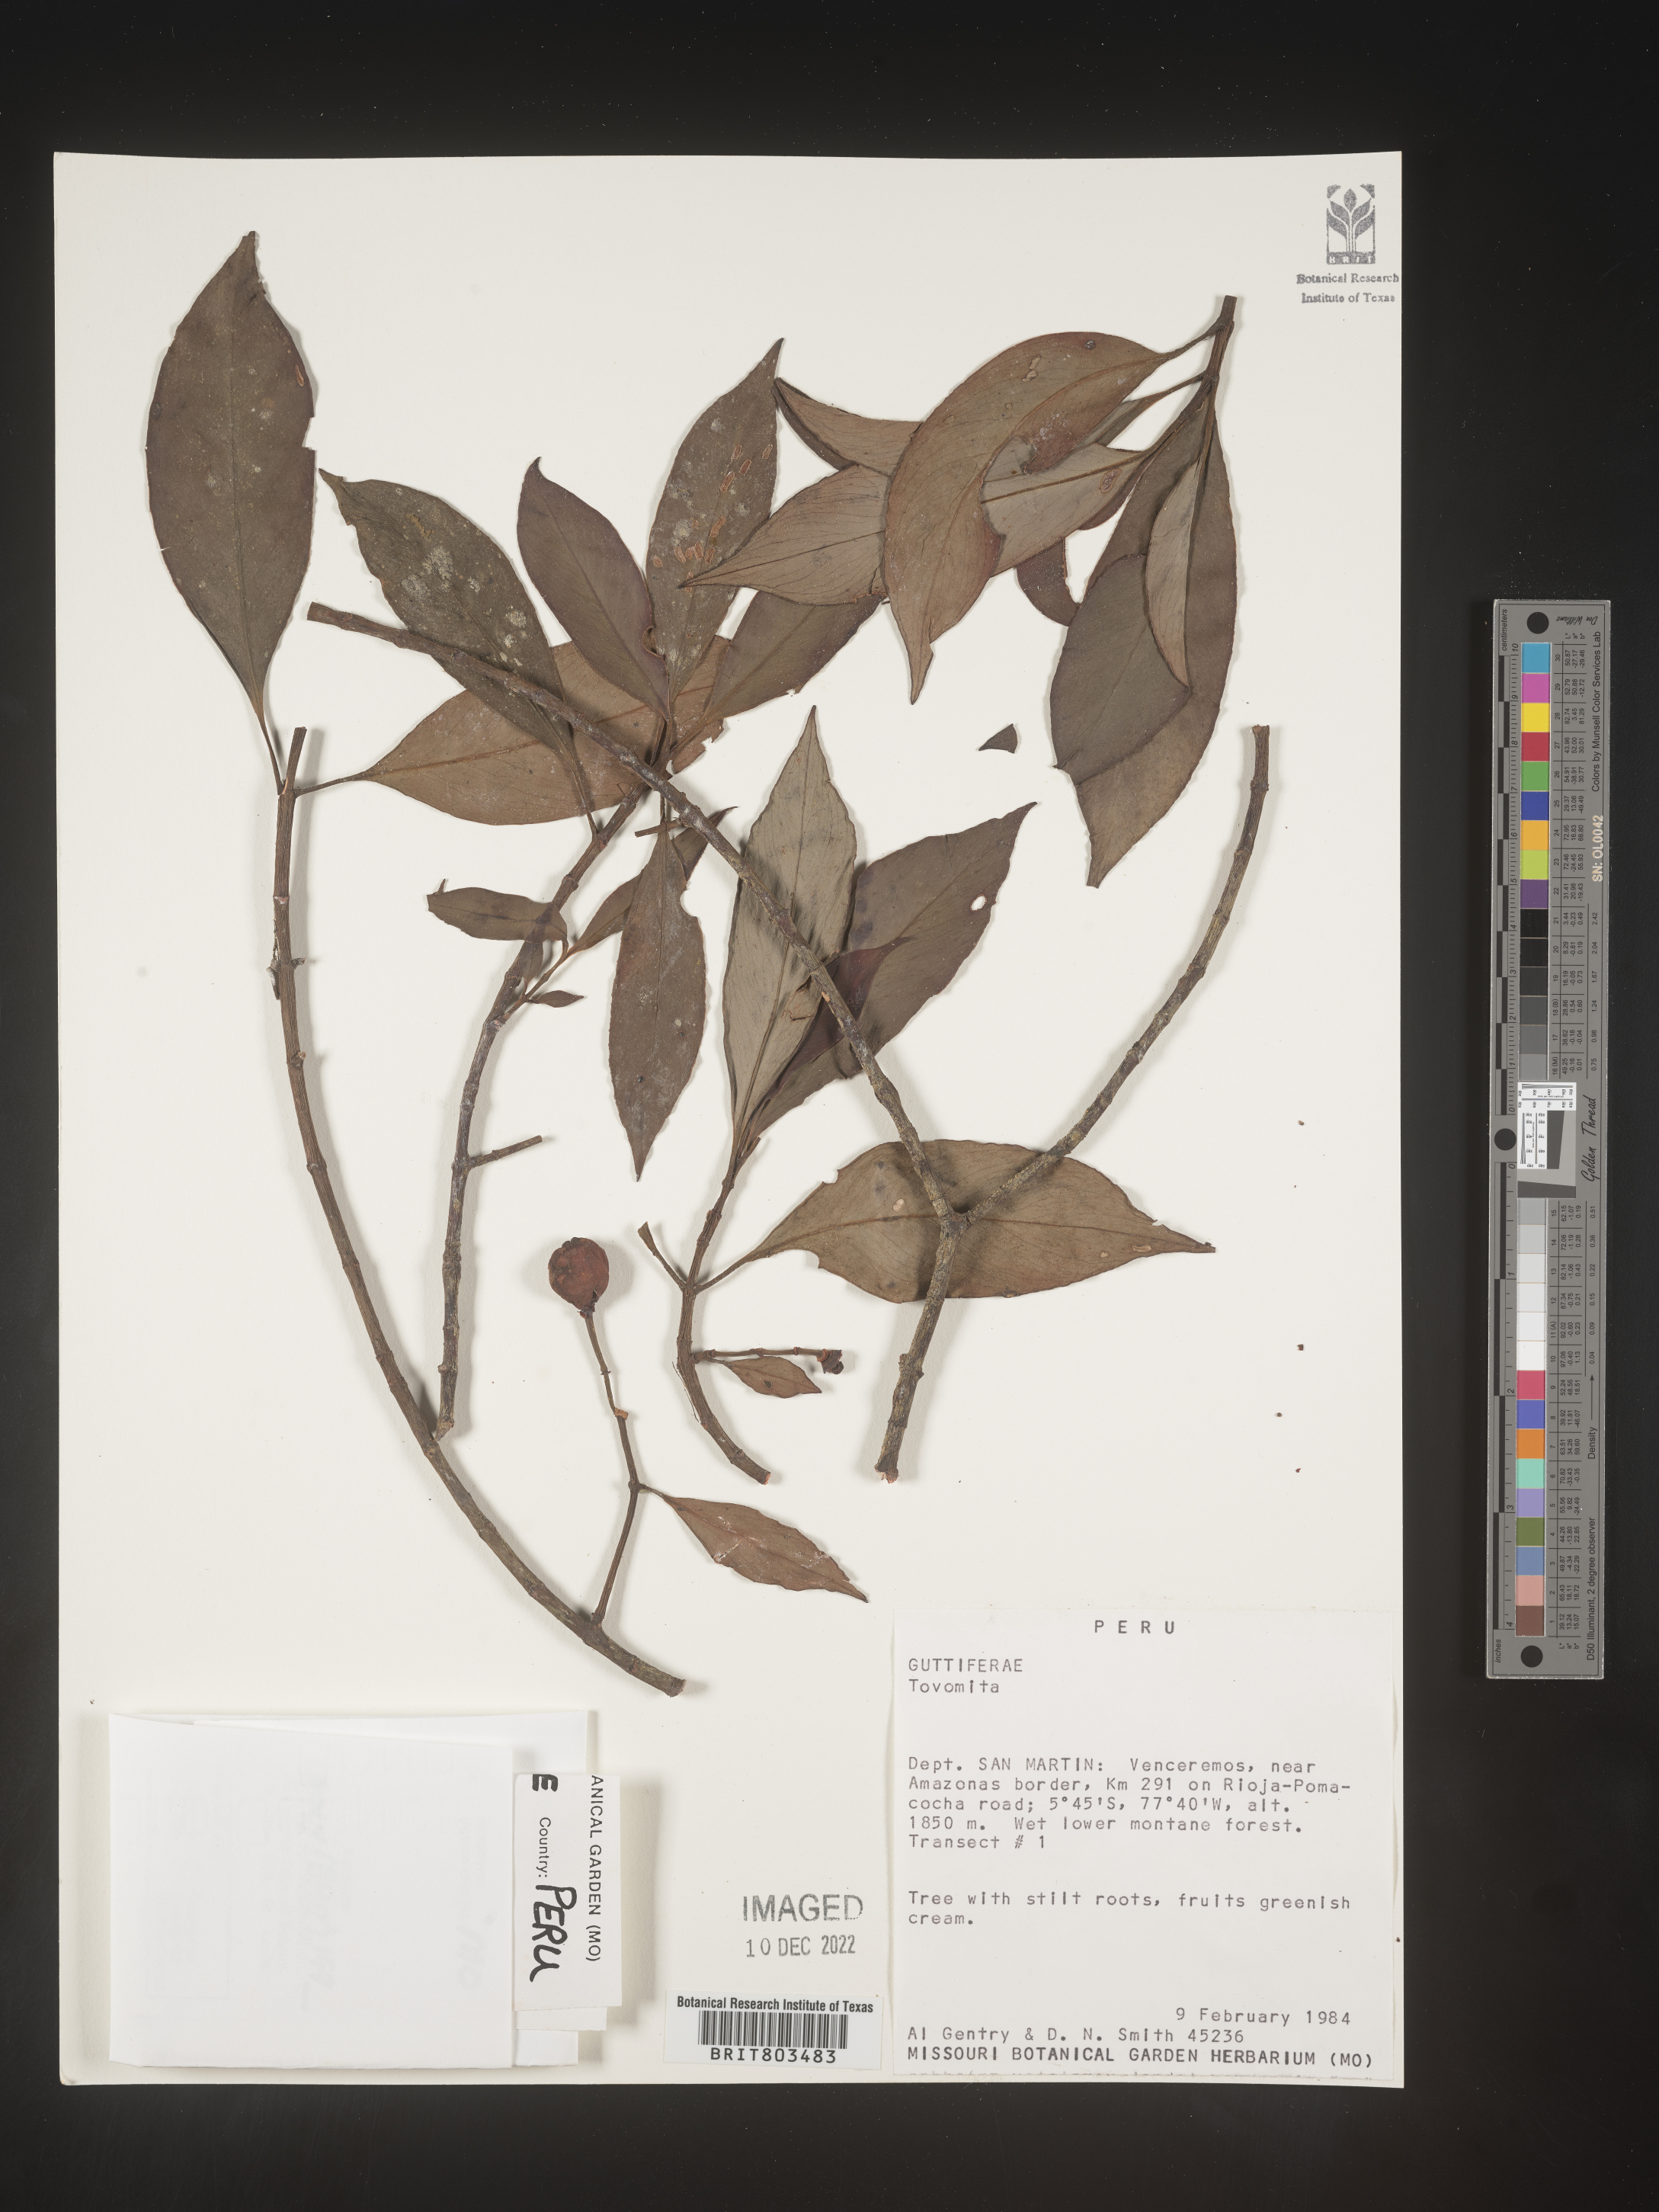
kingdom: Plantae
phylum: Tracheophyta
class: Magnoliopsida
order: Malpighiales
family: Clusiaceae
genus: Tovomita
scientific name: Tovomita
